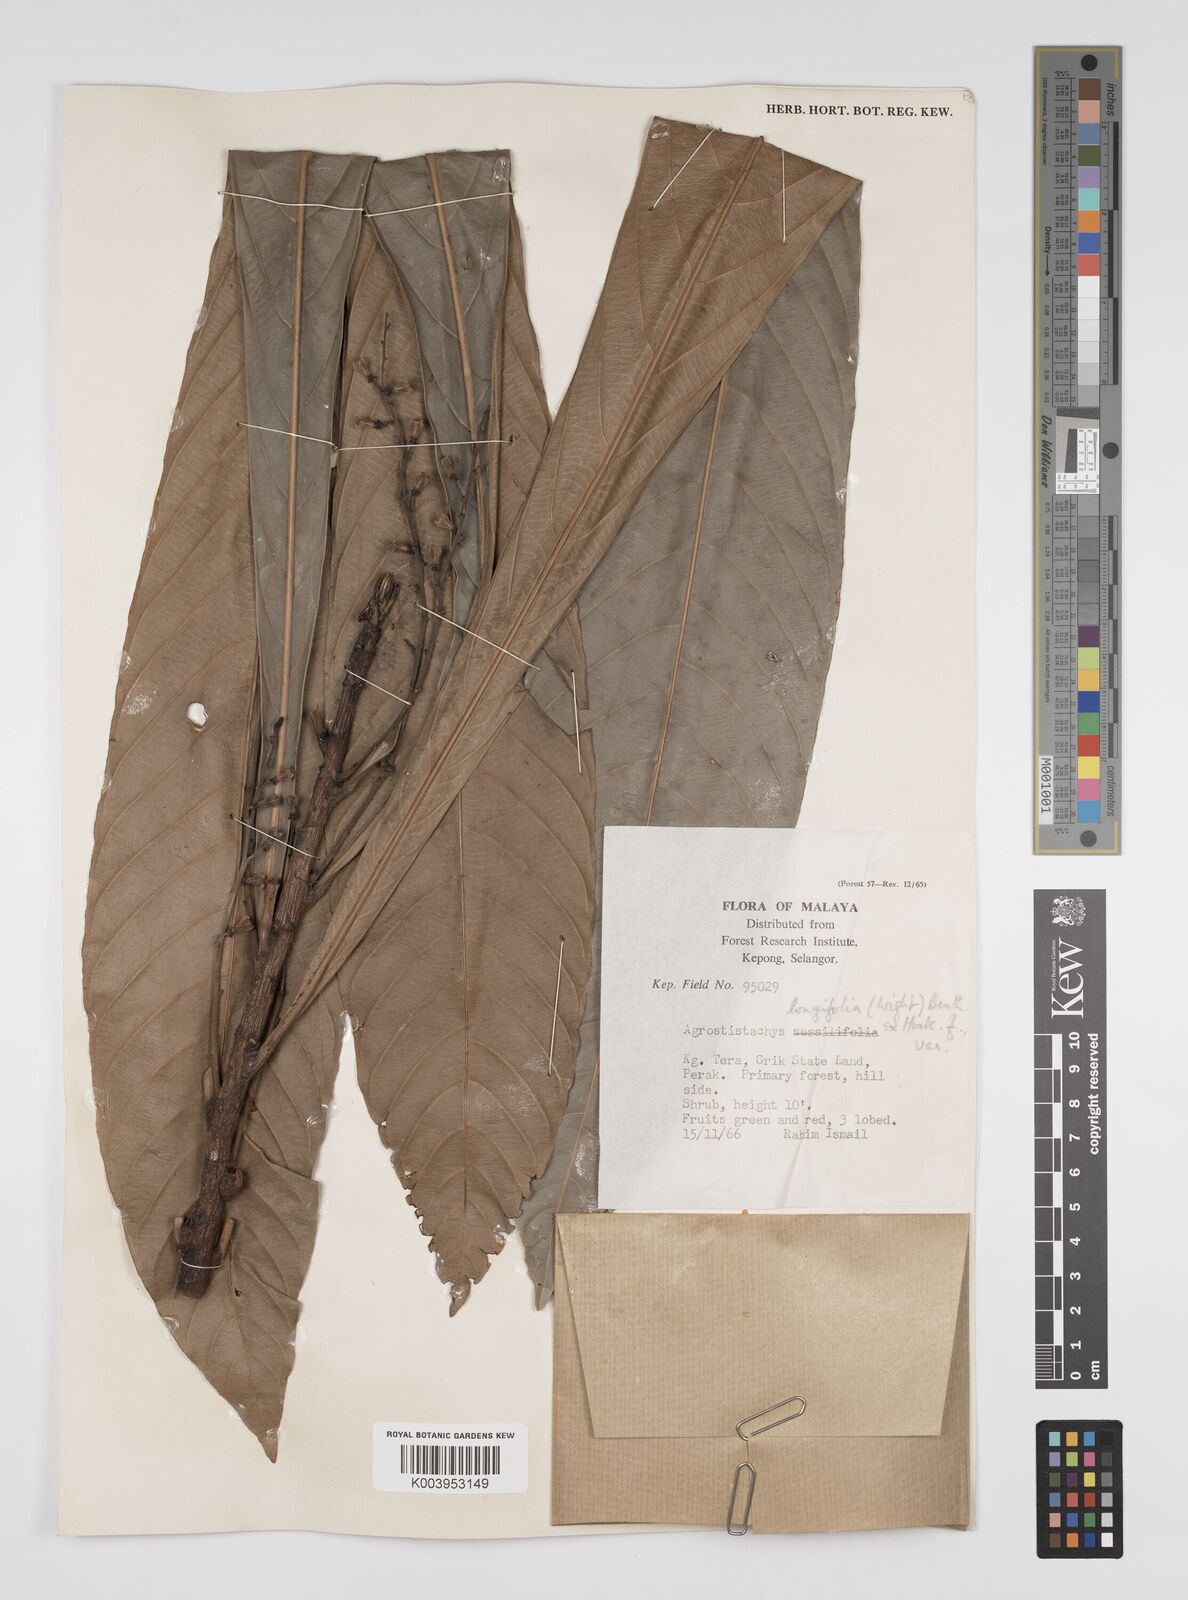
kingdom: Plantae
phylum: Tracheophyta
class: Magnoliopsida
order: Malpighiales
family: Euphorbiaceae
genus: Agrostistachys
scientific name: Agrostistachys borneensis
